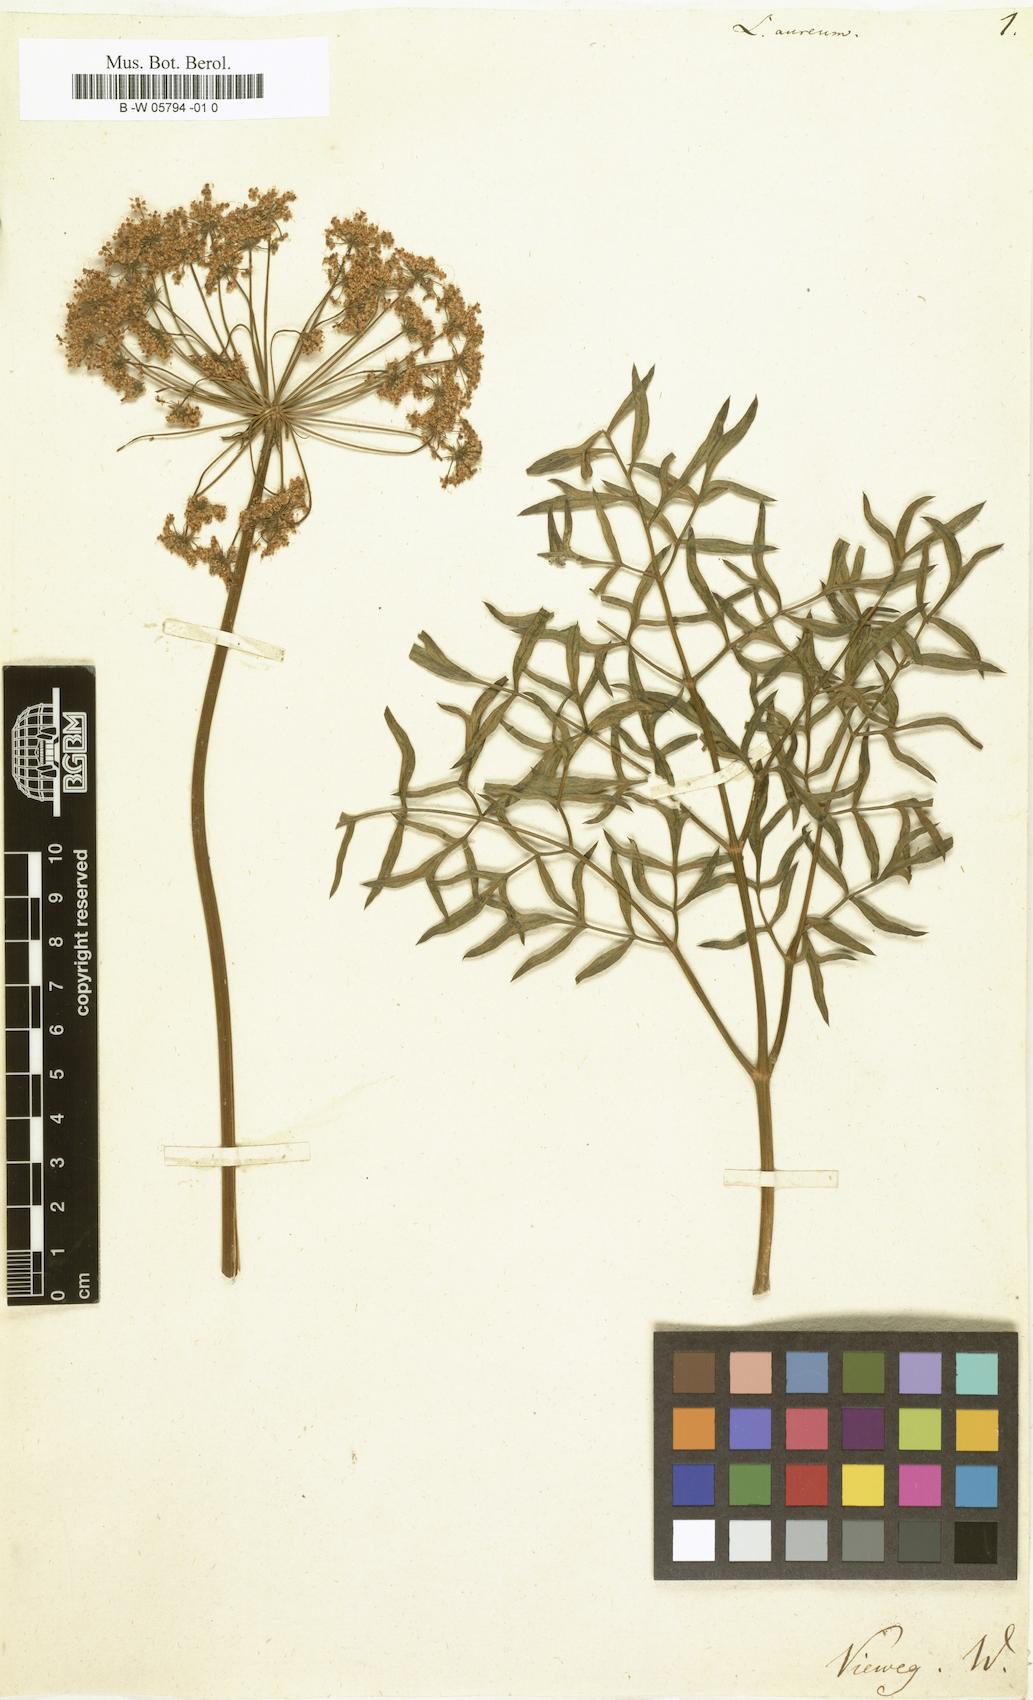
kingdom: Plantae
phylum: Tracheophyta
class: Magnoliopsida
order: Apiales
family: Apiaceae
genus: Silphiodaucus
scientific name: Silphiodaucus prutenicus
